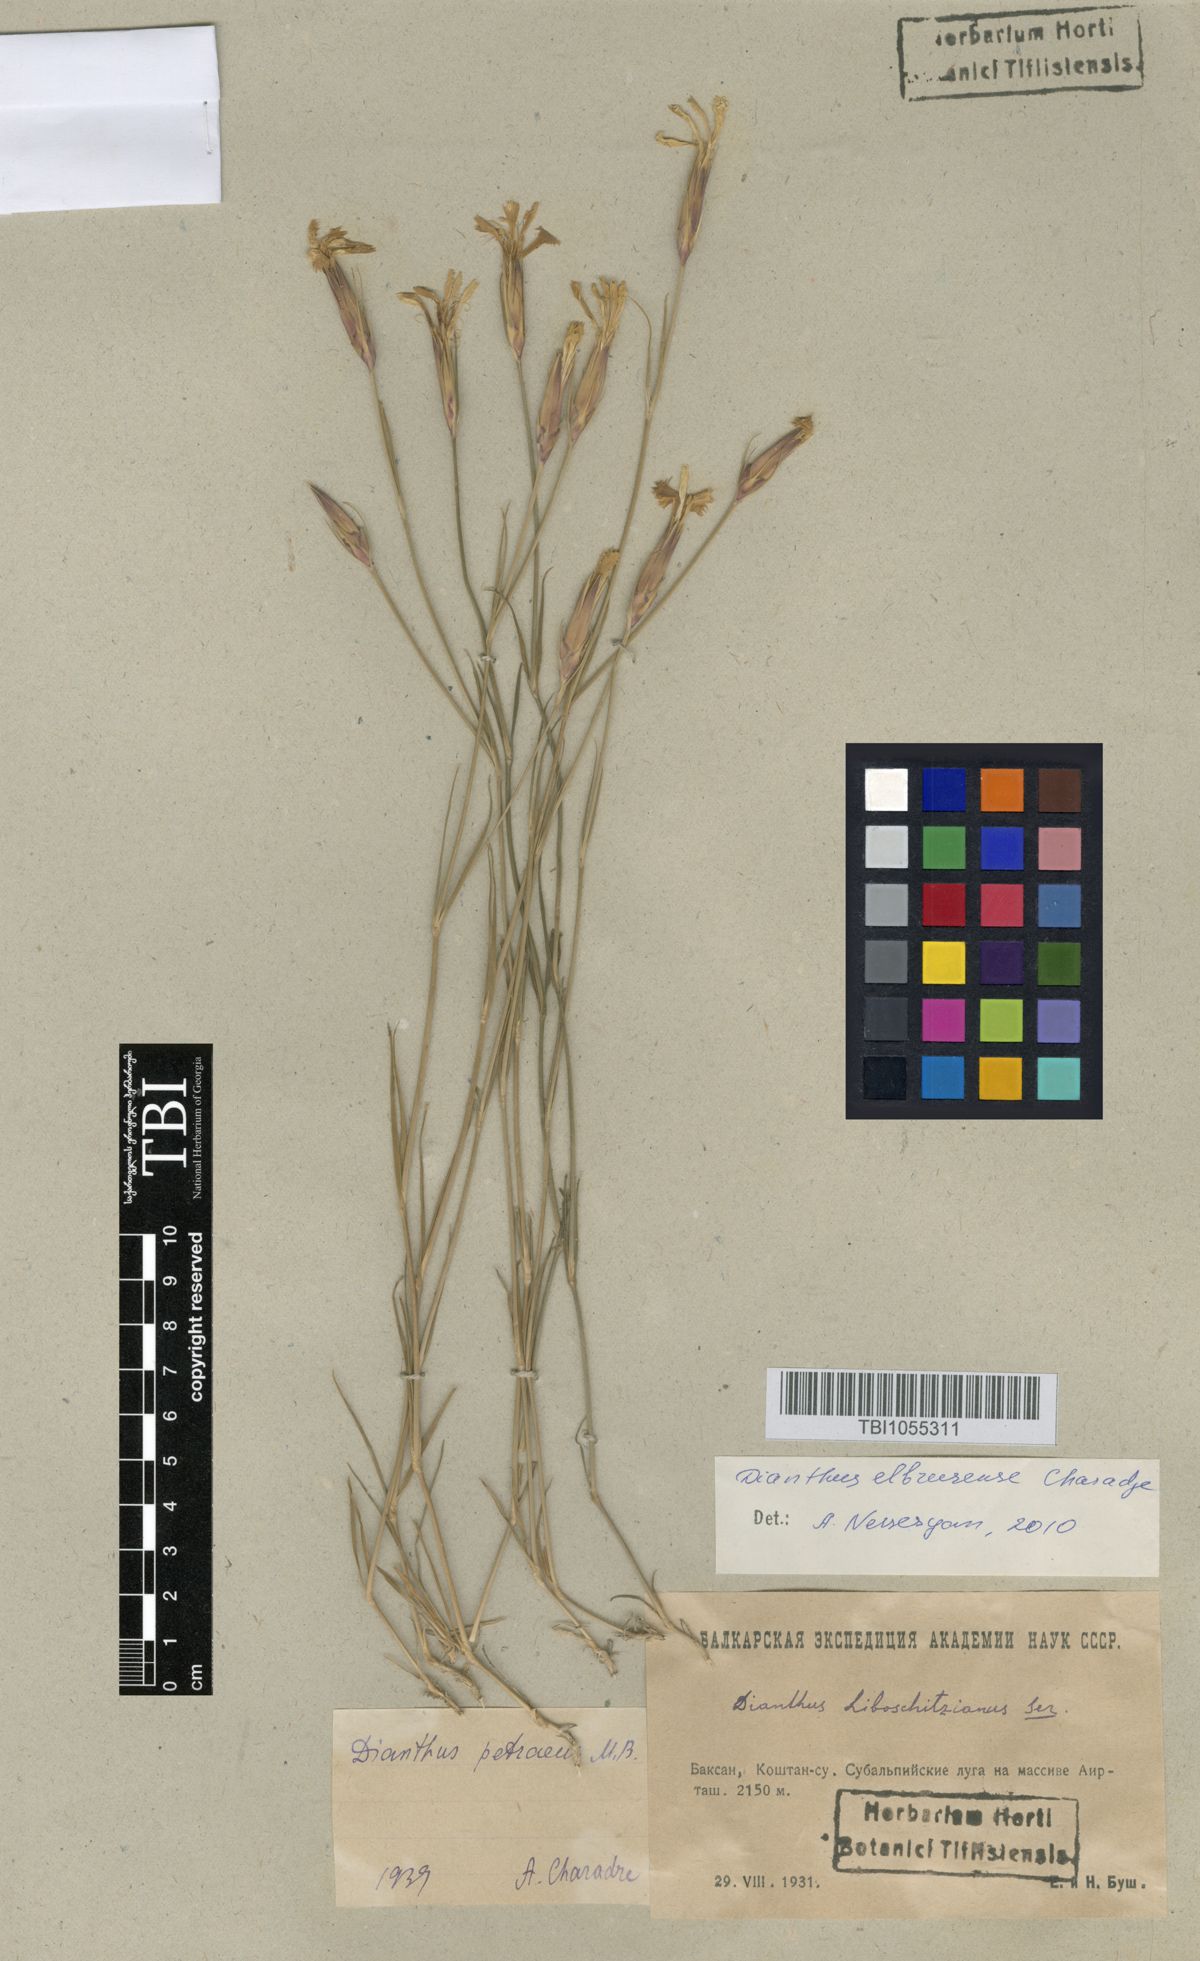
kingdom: Plantae
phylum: Tracheophyta
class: Magnoliopsida
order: Caryophyllales
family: Caryophyllaceae
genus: Dianthus
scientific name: Dianthus cretaceus
